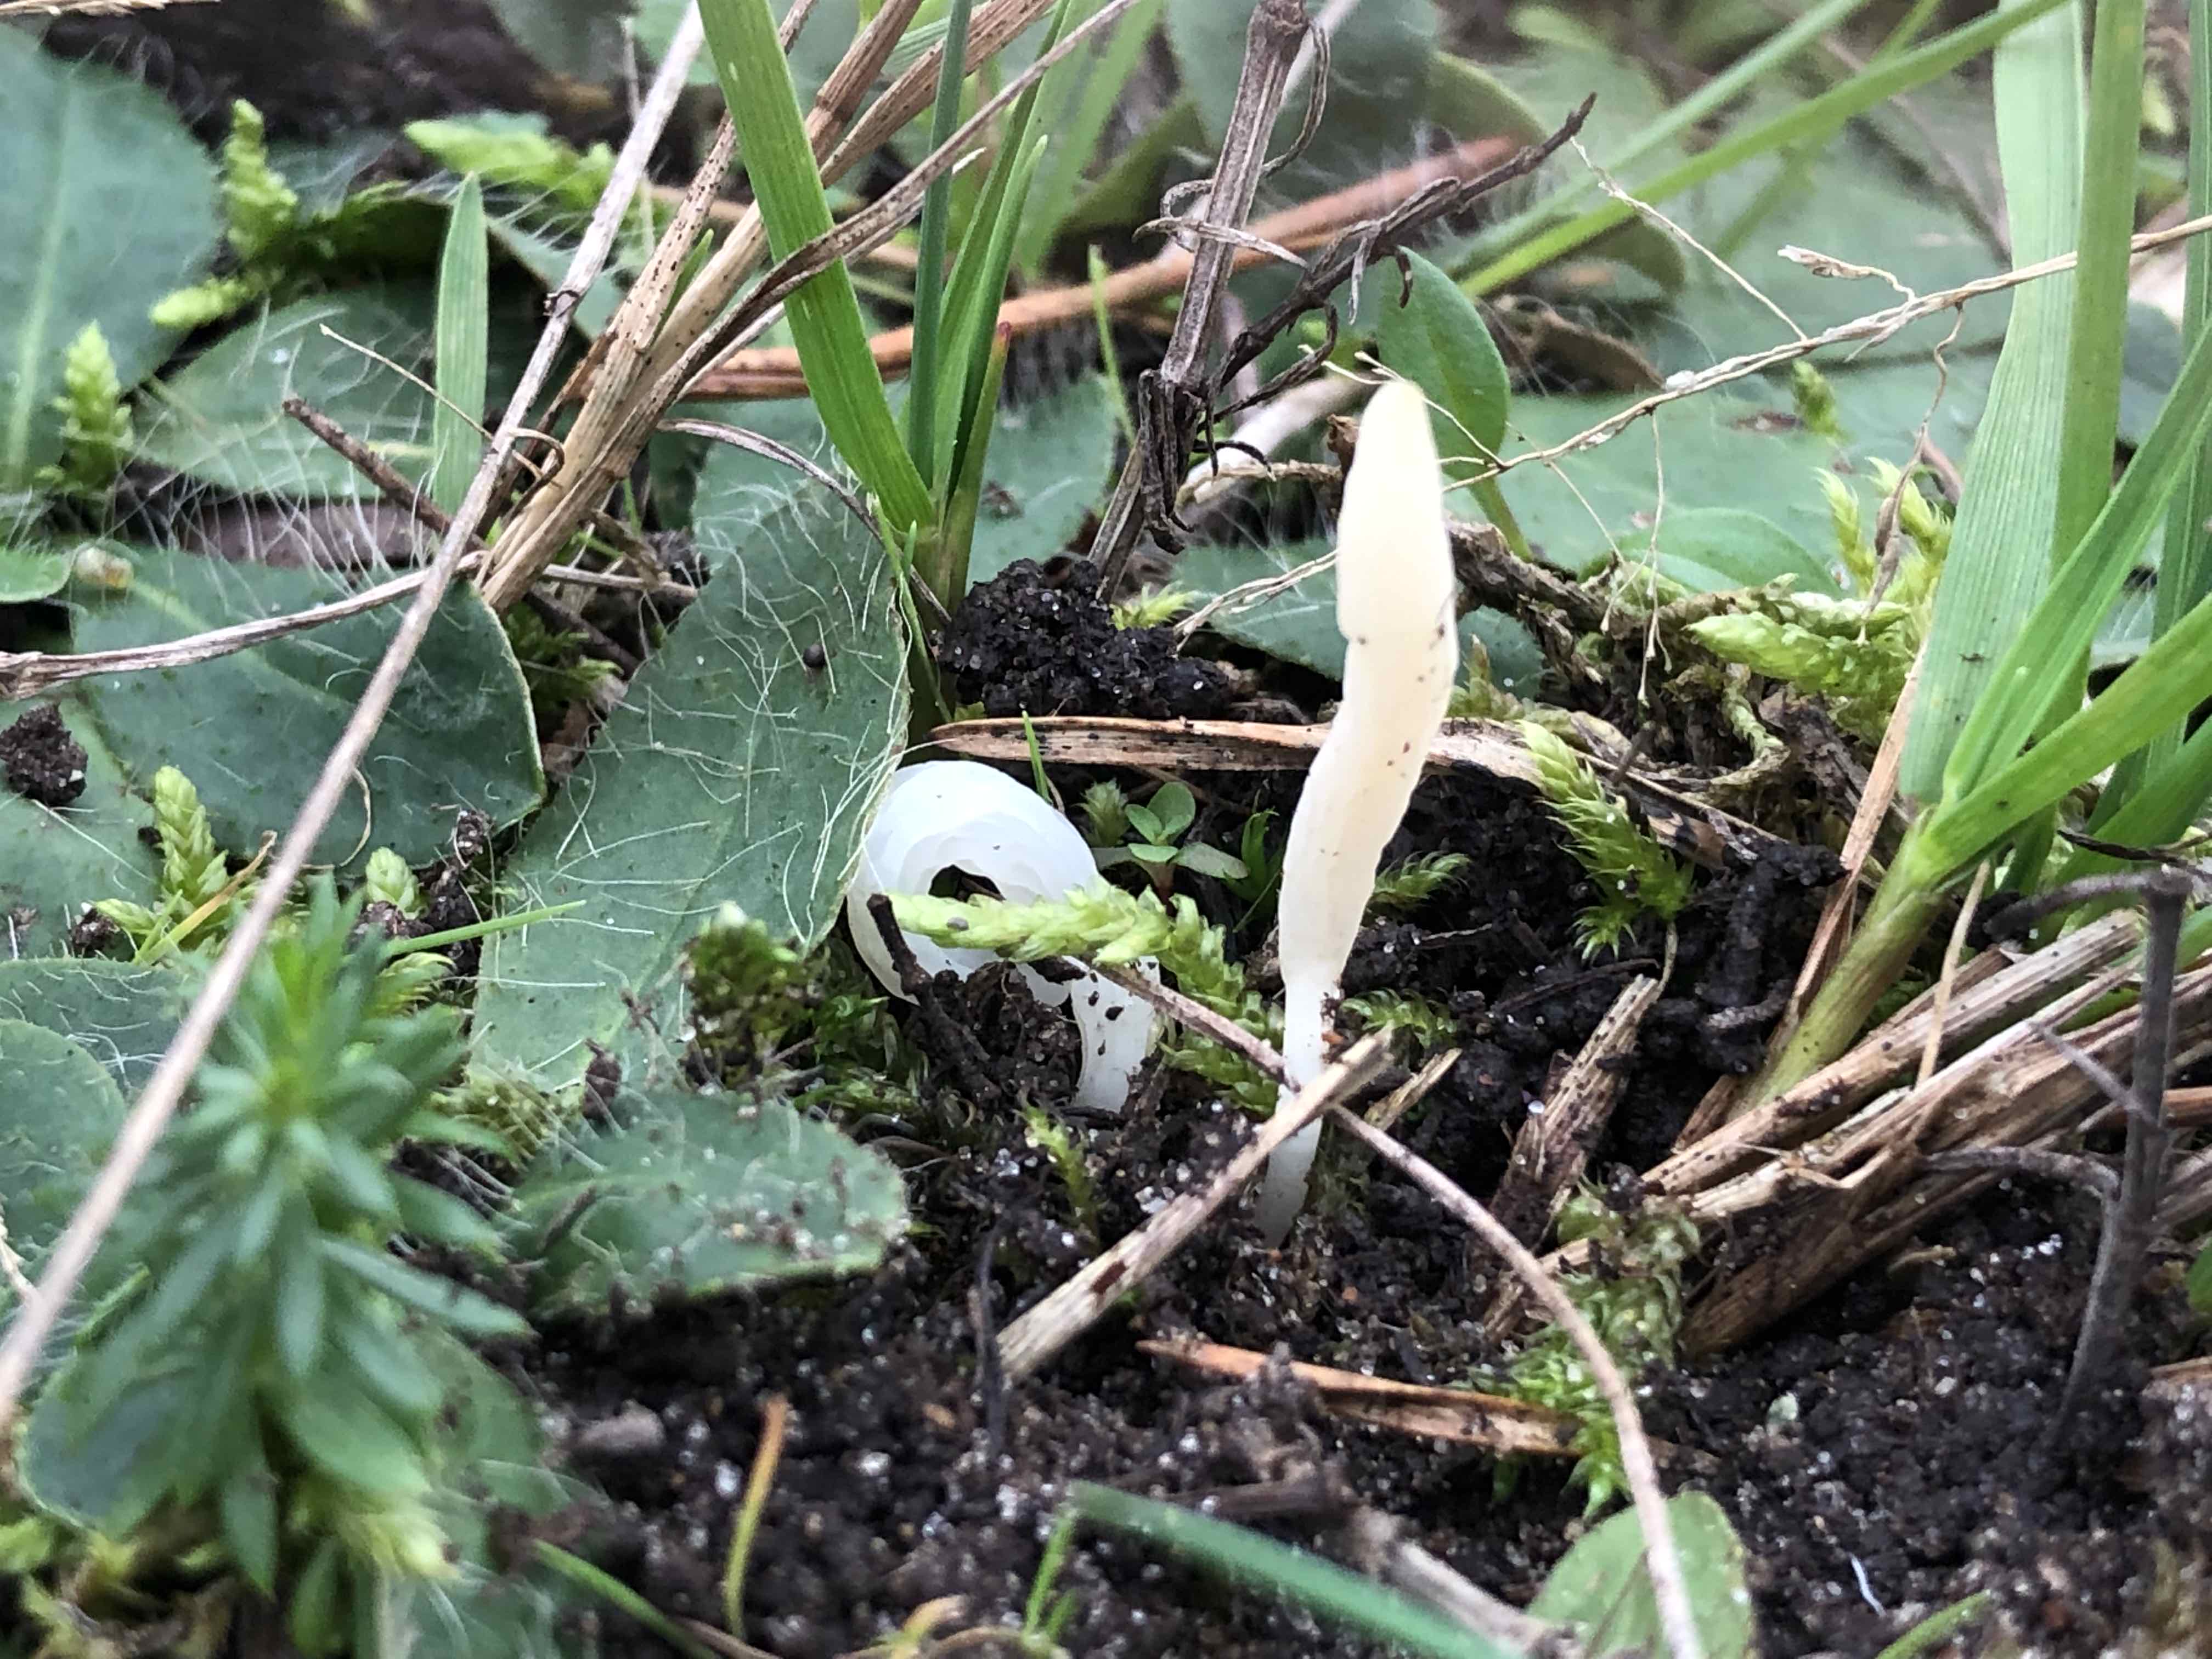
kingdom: Fungi
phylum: Basidiomycota
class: Agaricomycetes
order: Agaricales
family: Clavariaceae
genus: Clavaria
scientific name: Clavaria falcata
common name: hvid køllesvamp
